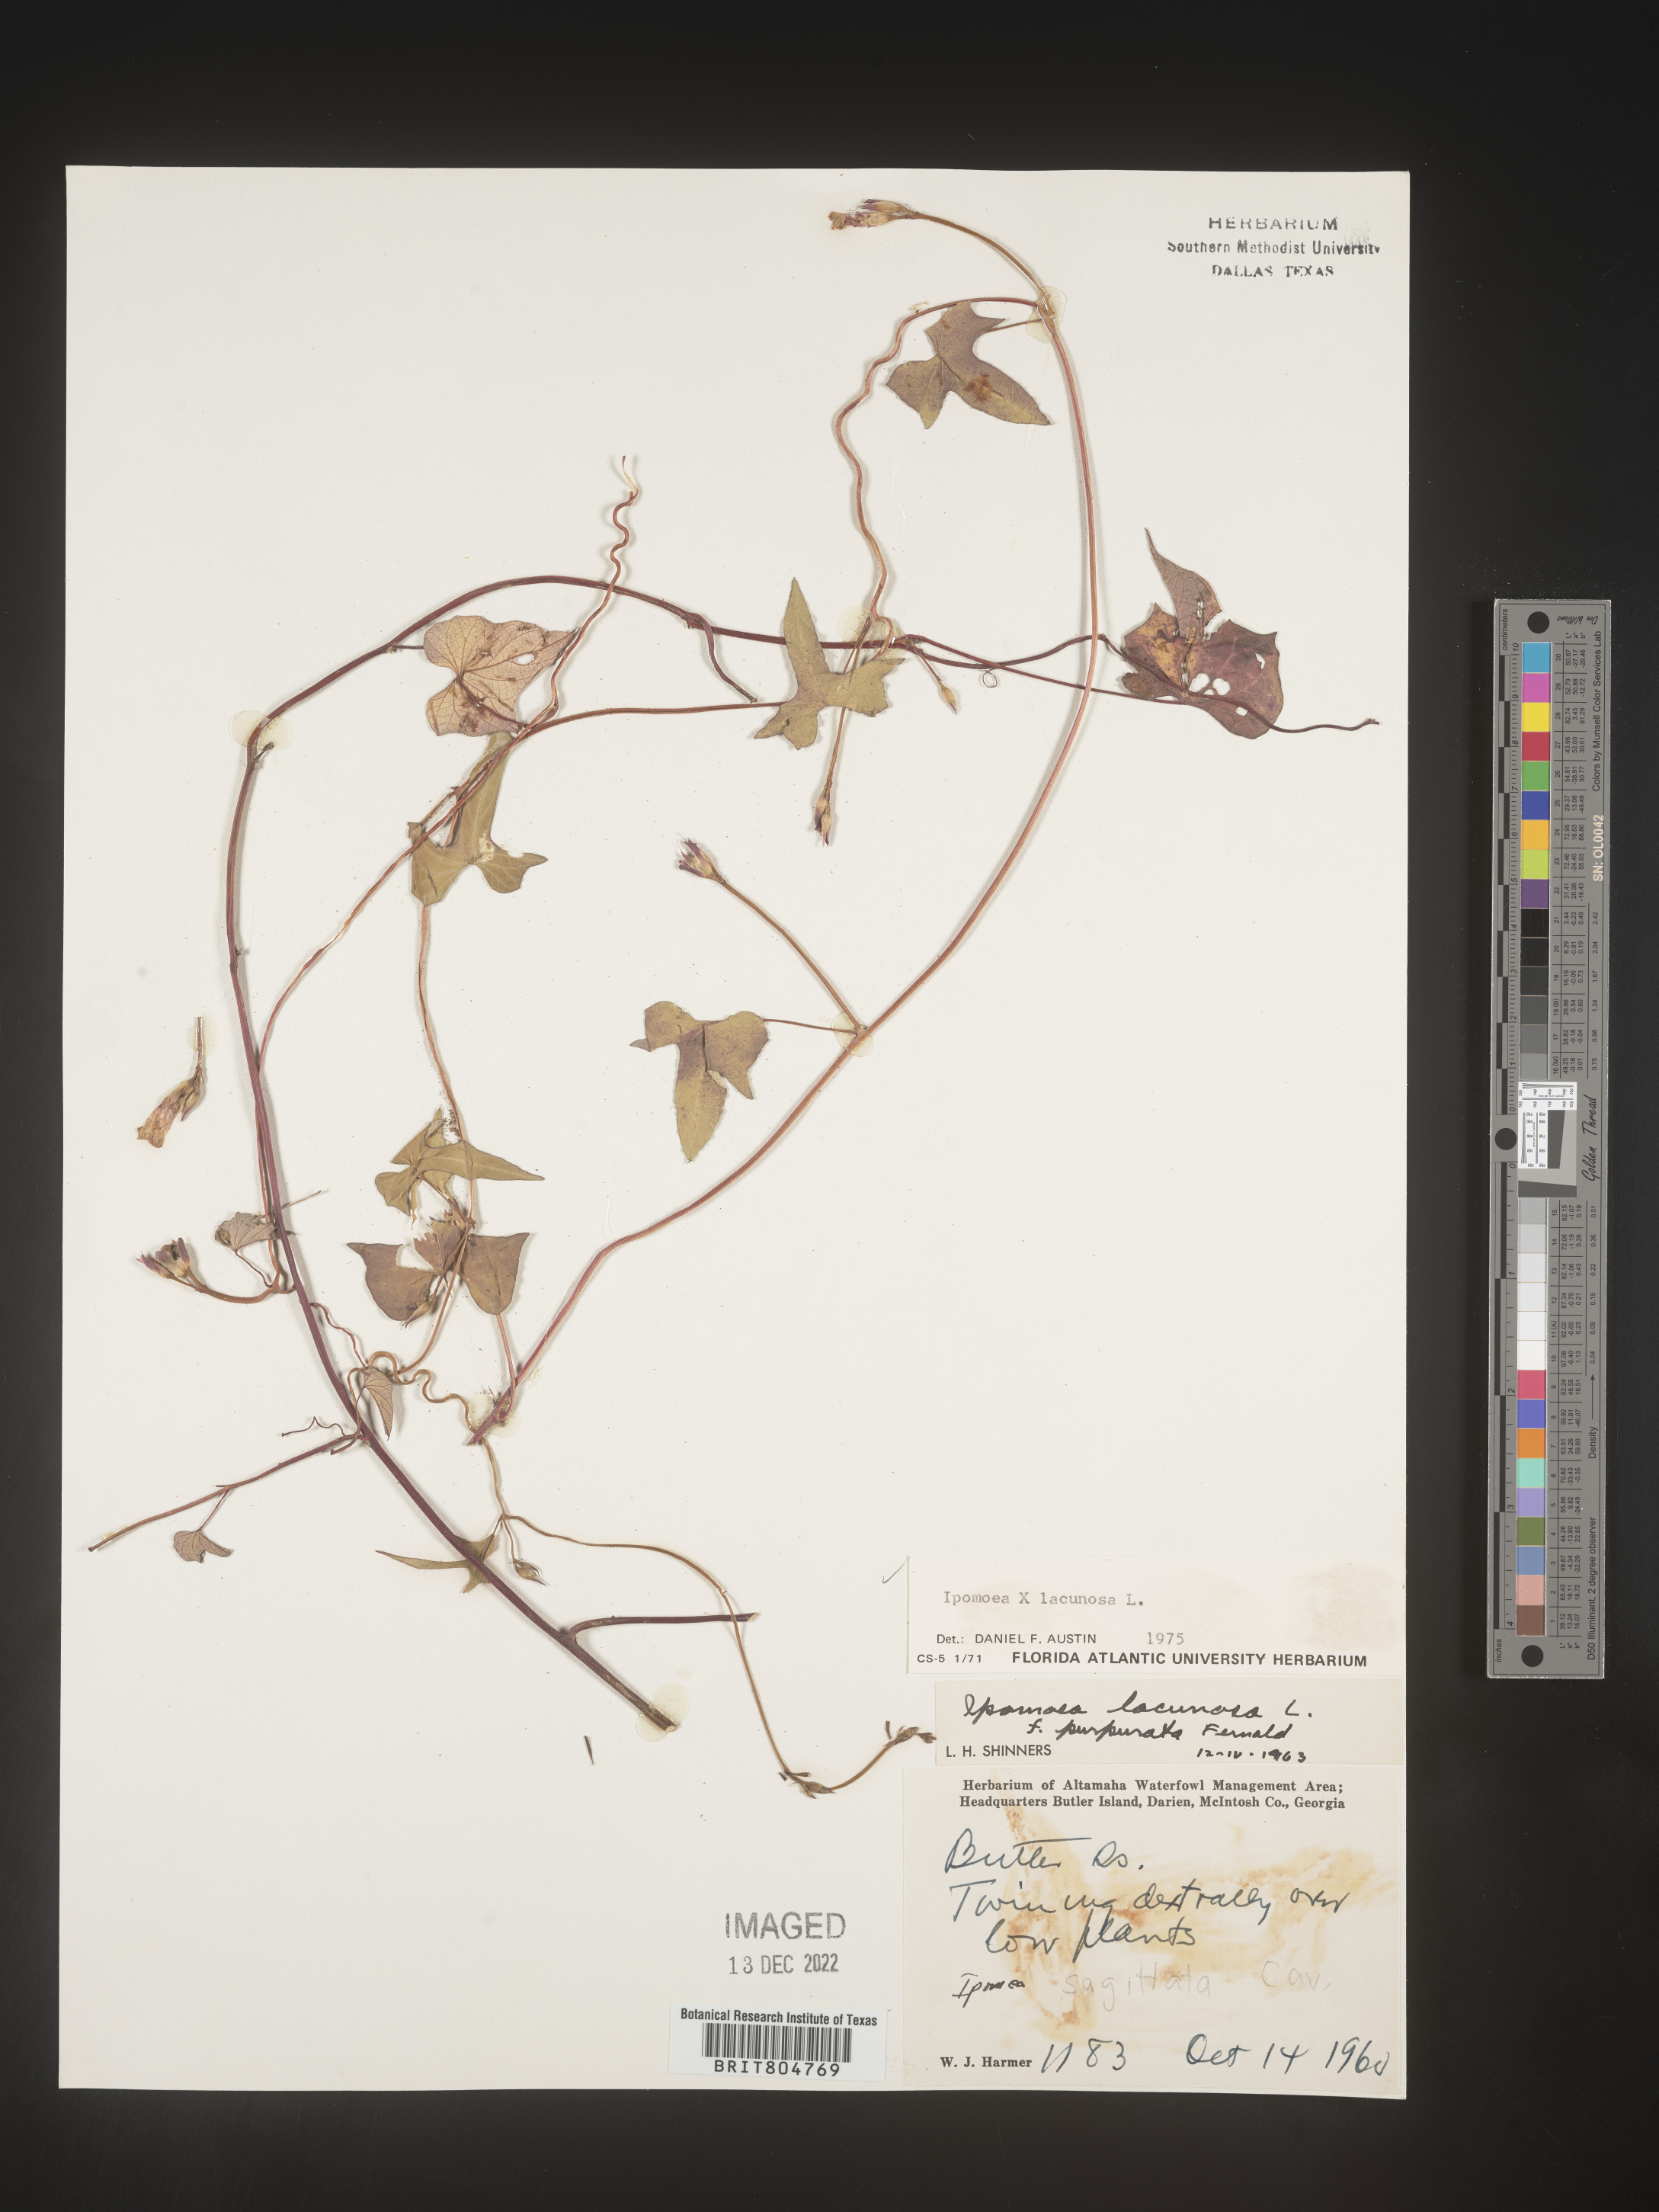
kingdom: Plantae
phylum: Tracheophyta
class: Magnoliopsida
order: Solanales
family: Convolvulaceae
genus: Ipomoea
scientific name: Ipomoea lacunosa
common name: White morning-glory
